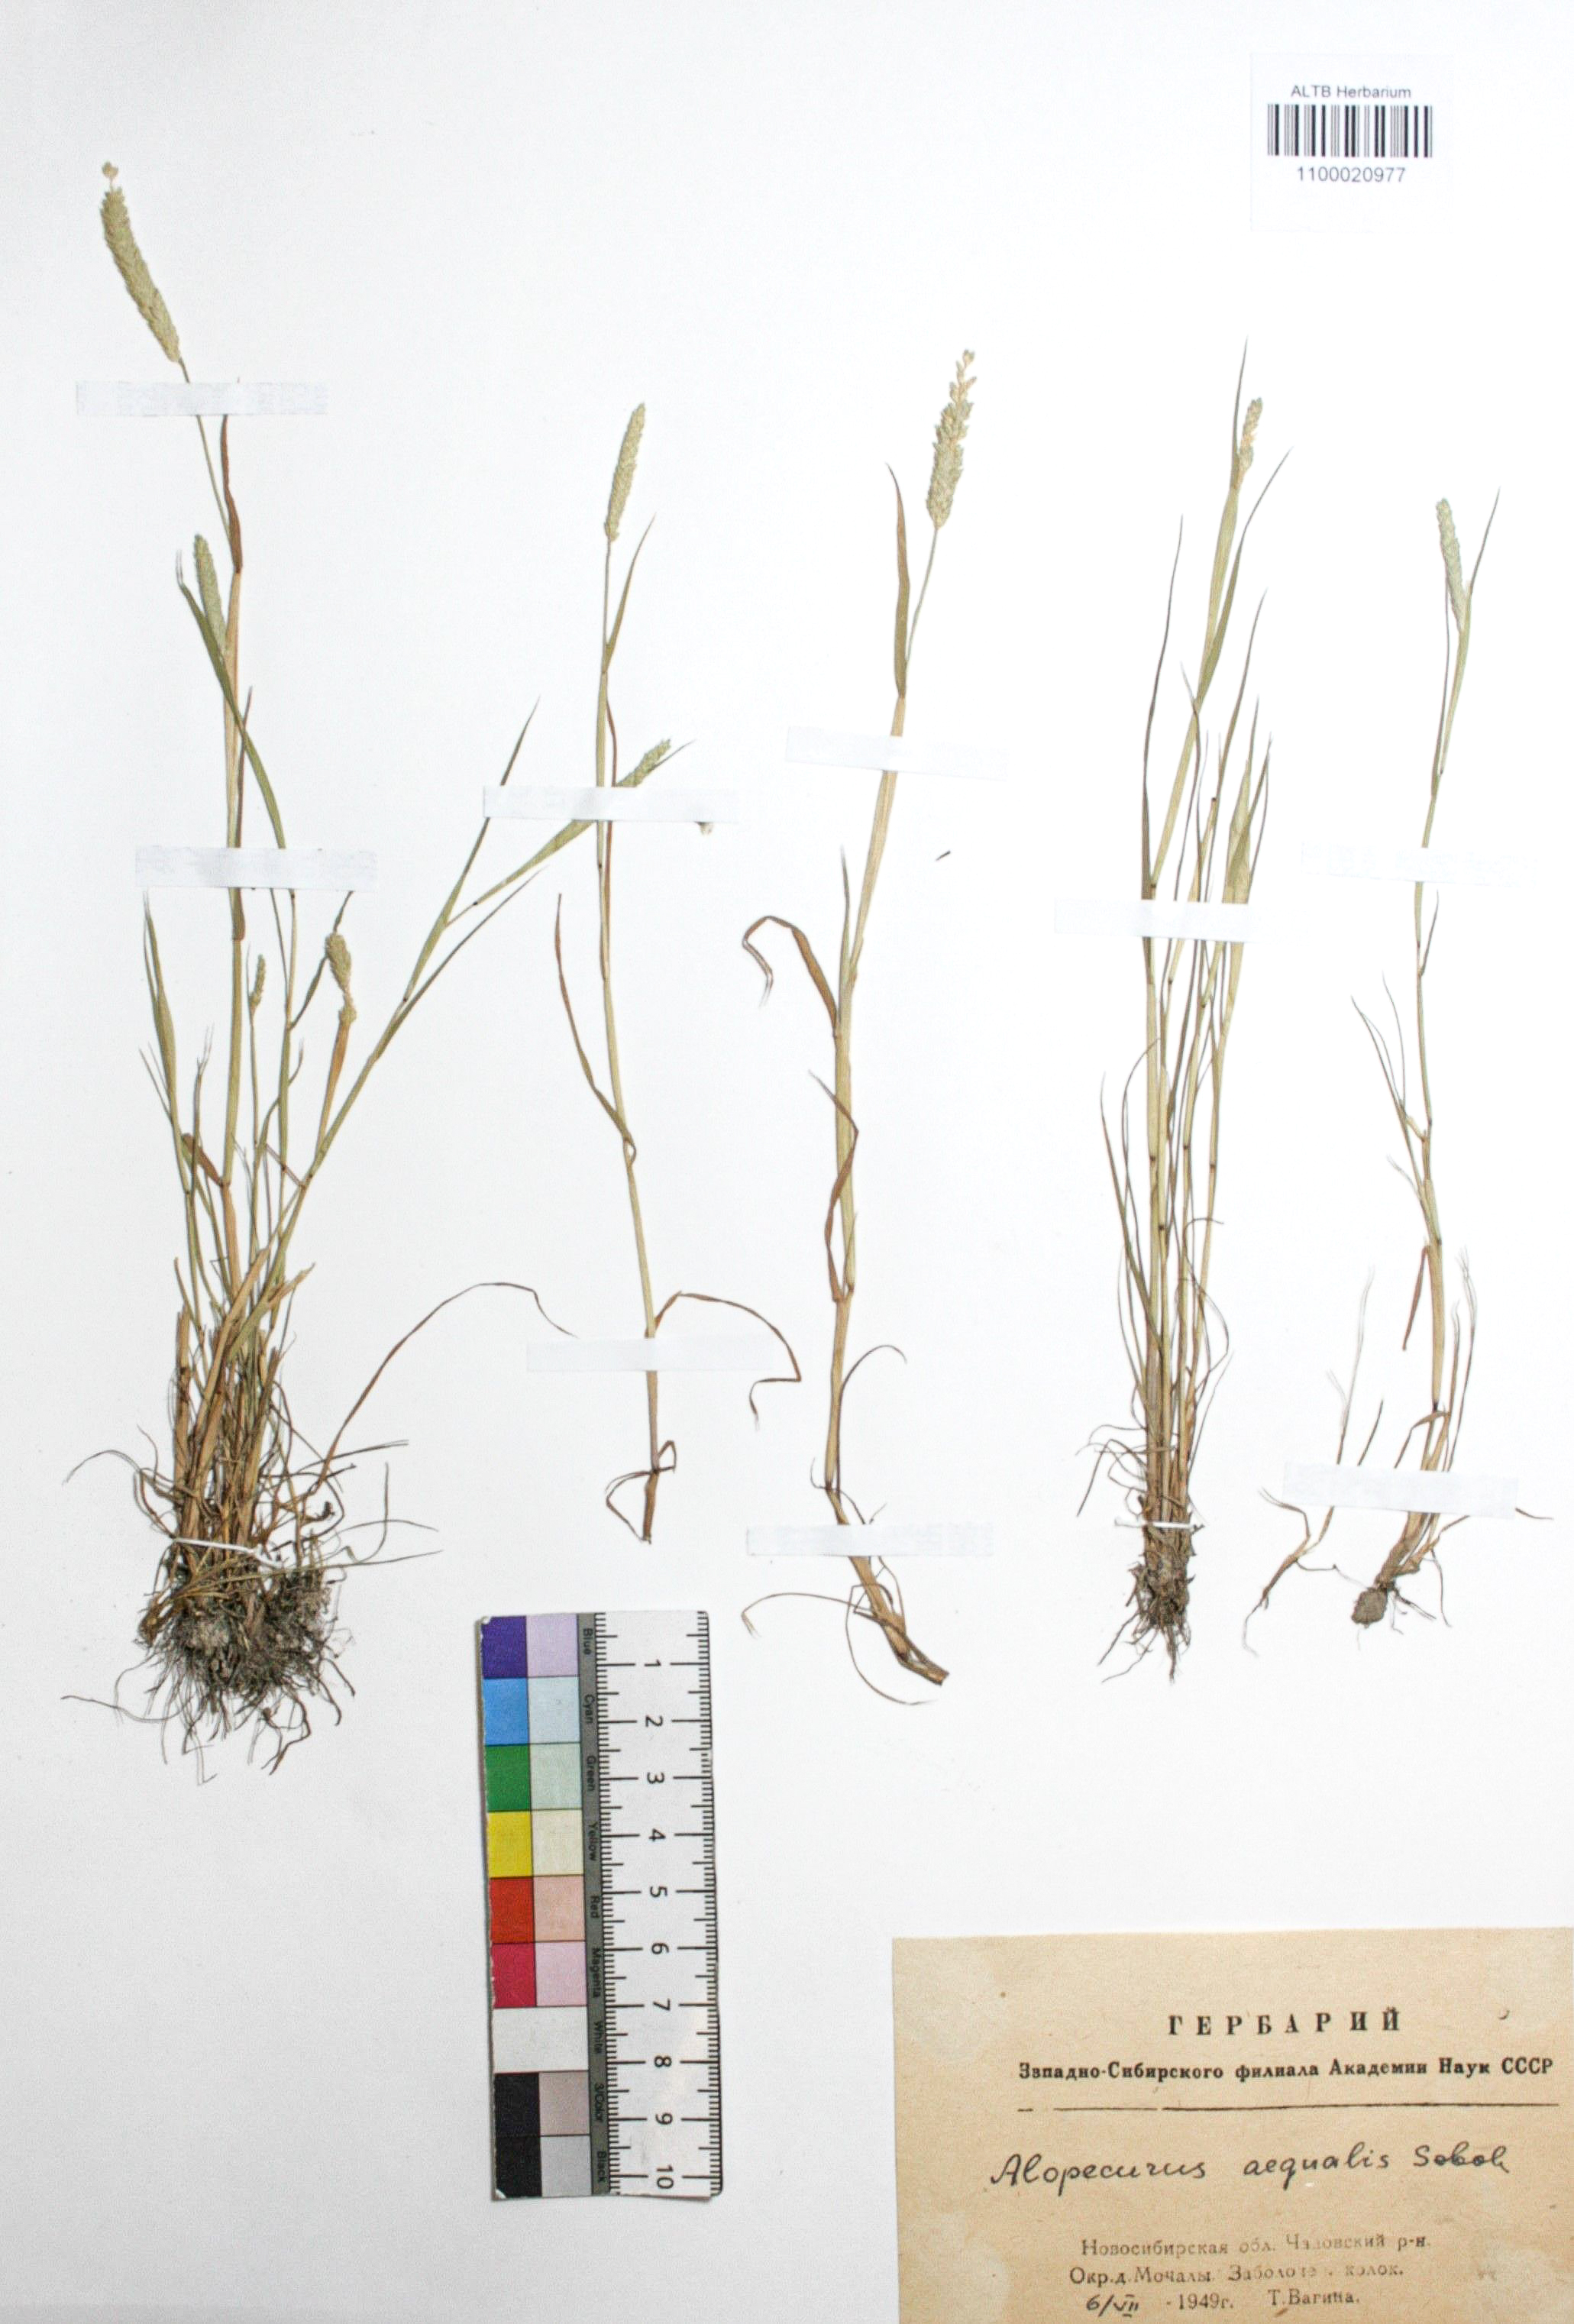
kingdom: Plantae
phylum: Tracheophyta
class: Liliopsida
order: Poales
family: Poaceae
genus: Alopecurus
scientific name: Alopecurus aequalis
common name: Orange foxtail
